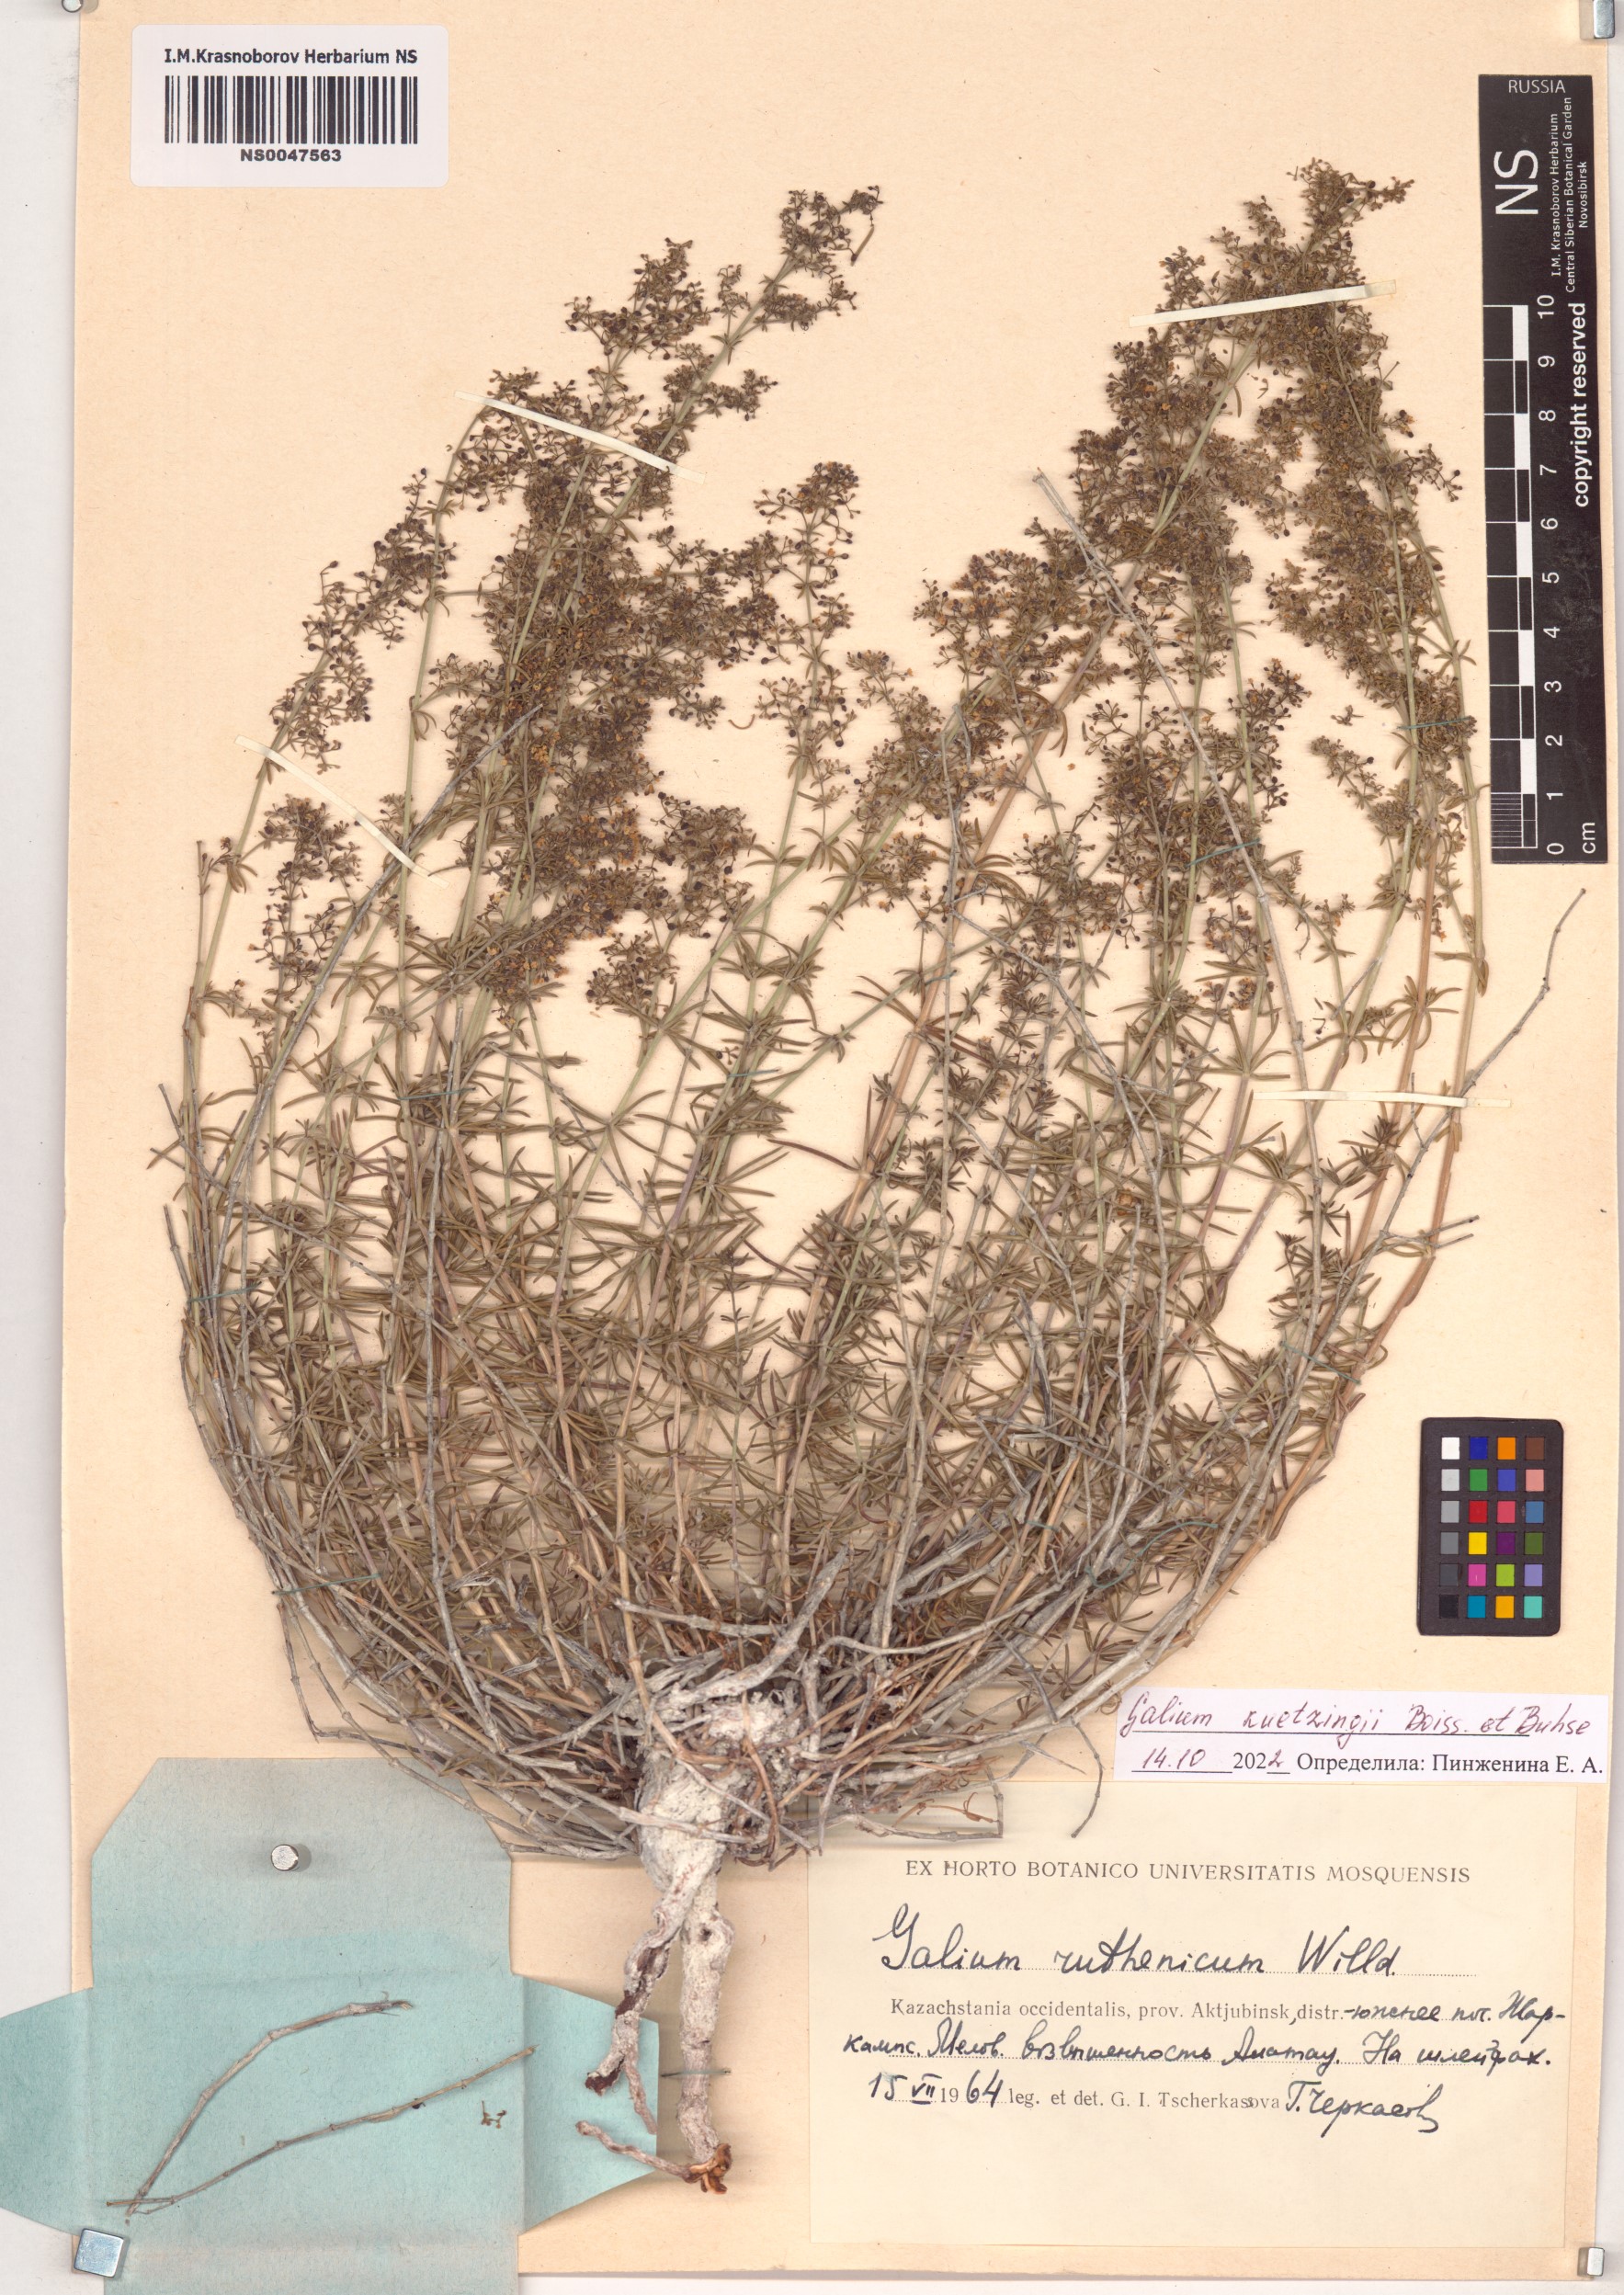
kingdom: Plantae
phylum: Tracheophyta
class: Magnoliopsida
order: Gentianales
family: Rubiaceae
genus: Galium
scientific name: Galium kuetzingii
